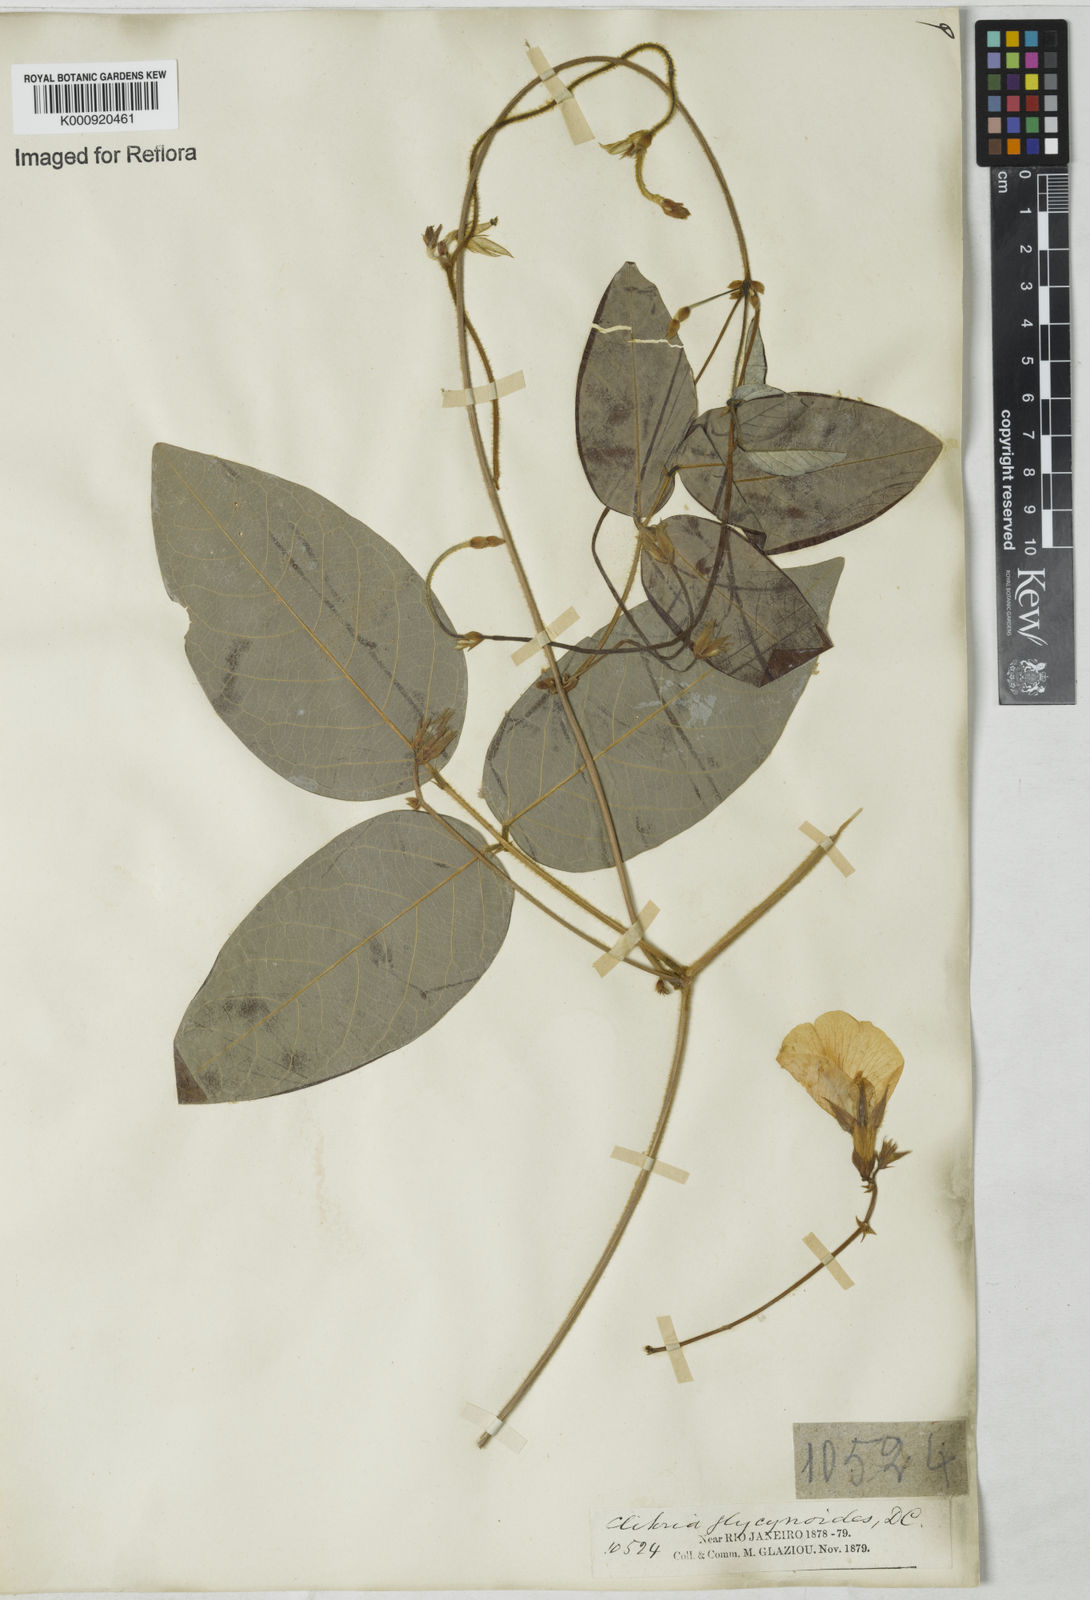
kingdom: Plantae
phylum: Tracheophyta
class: Magnoliopsida
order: Fabales
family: Fabaceae
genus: Clitoria
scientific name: Clitoria falcata
